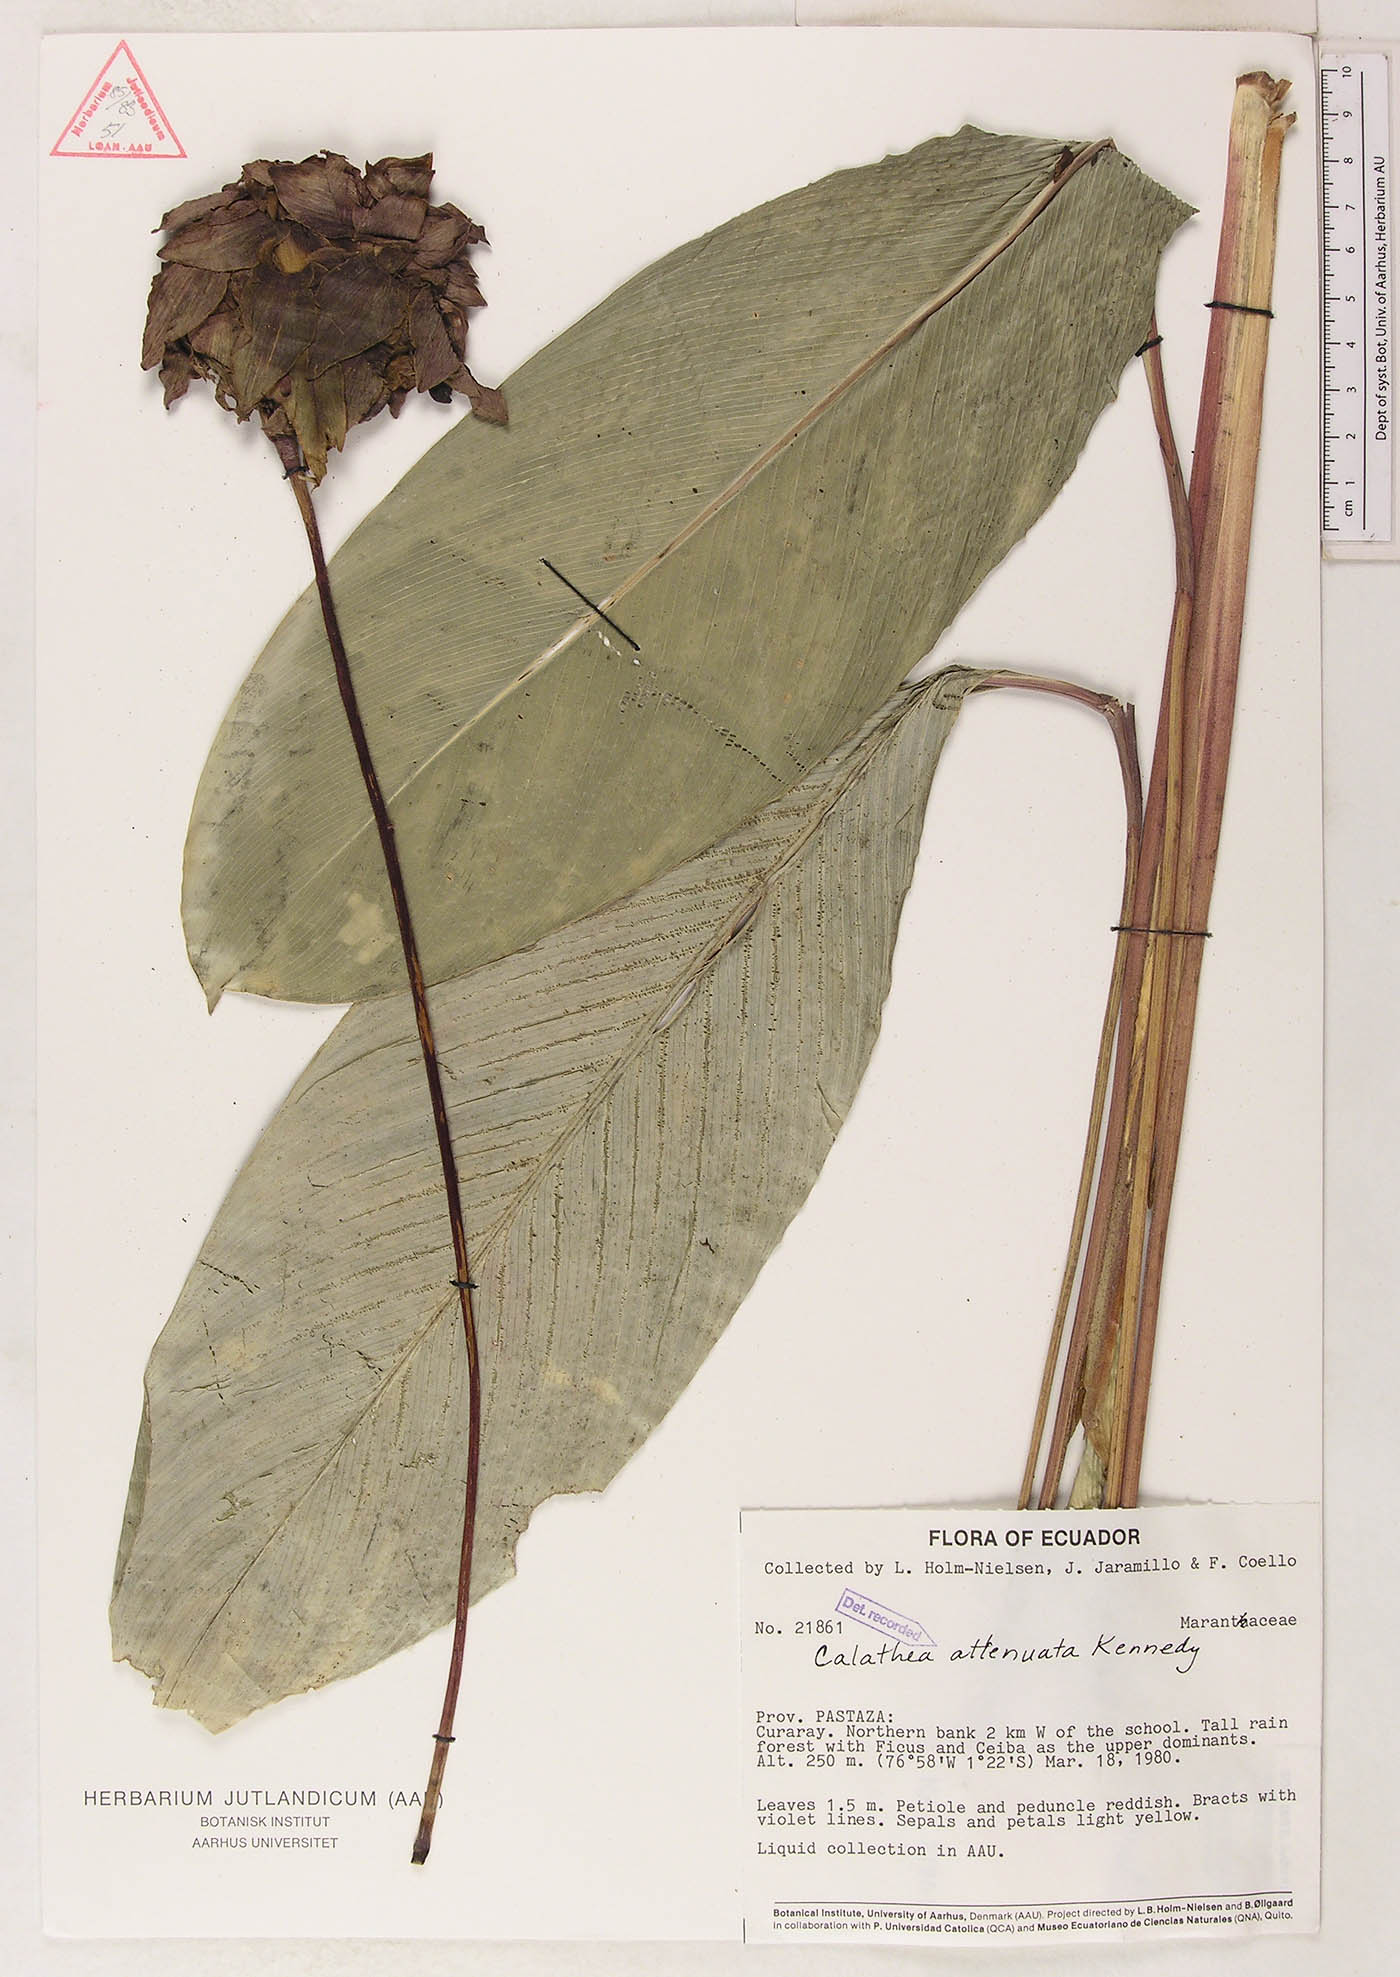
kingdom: Plantae
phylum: Tracheophyta
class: Liliopsida
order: Zingiberales
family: Marantaceae
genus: Goeppertia
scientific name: Goeppertia attenuata
